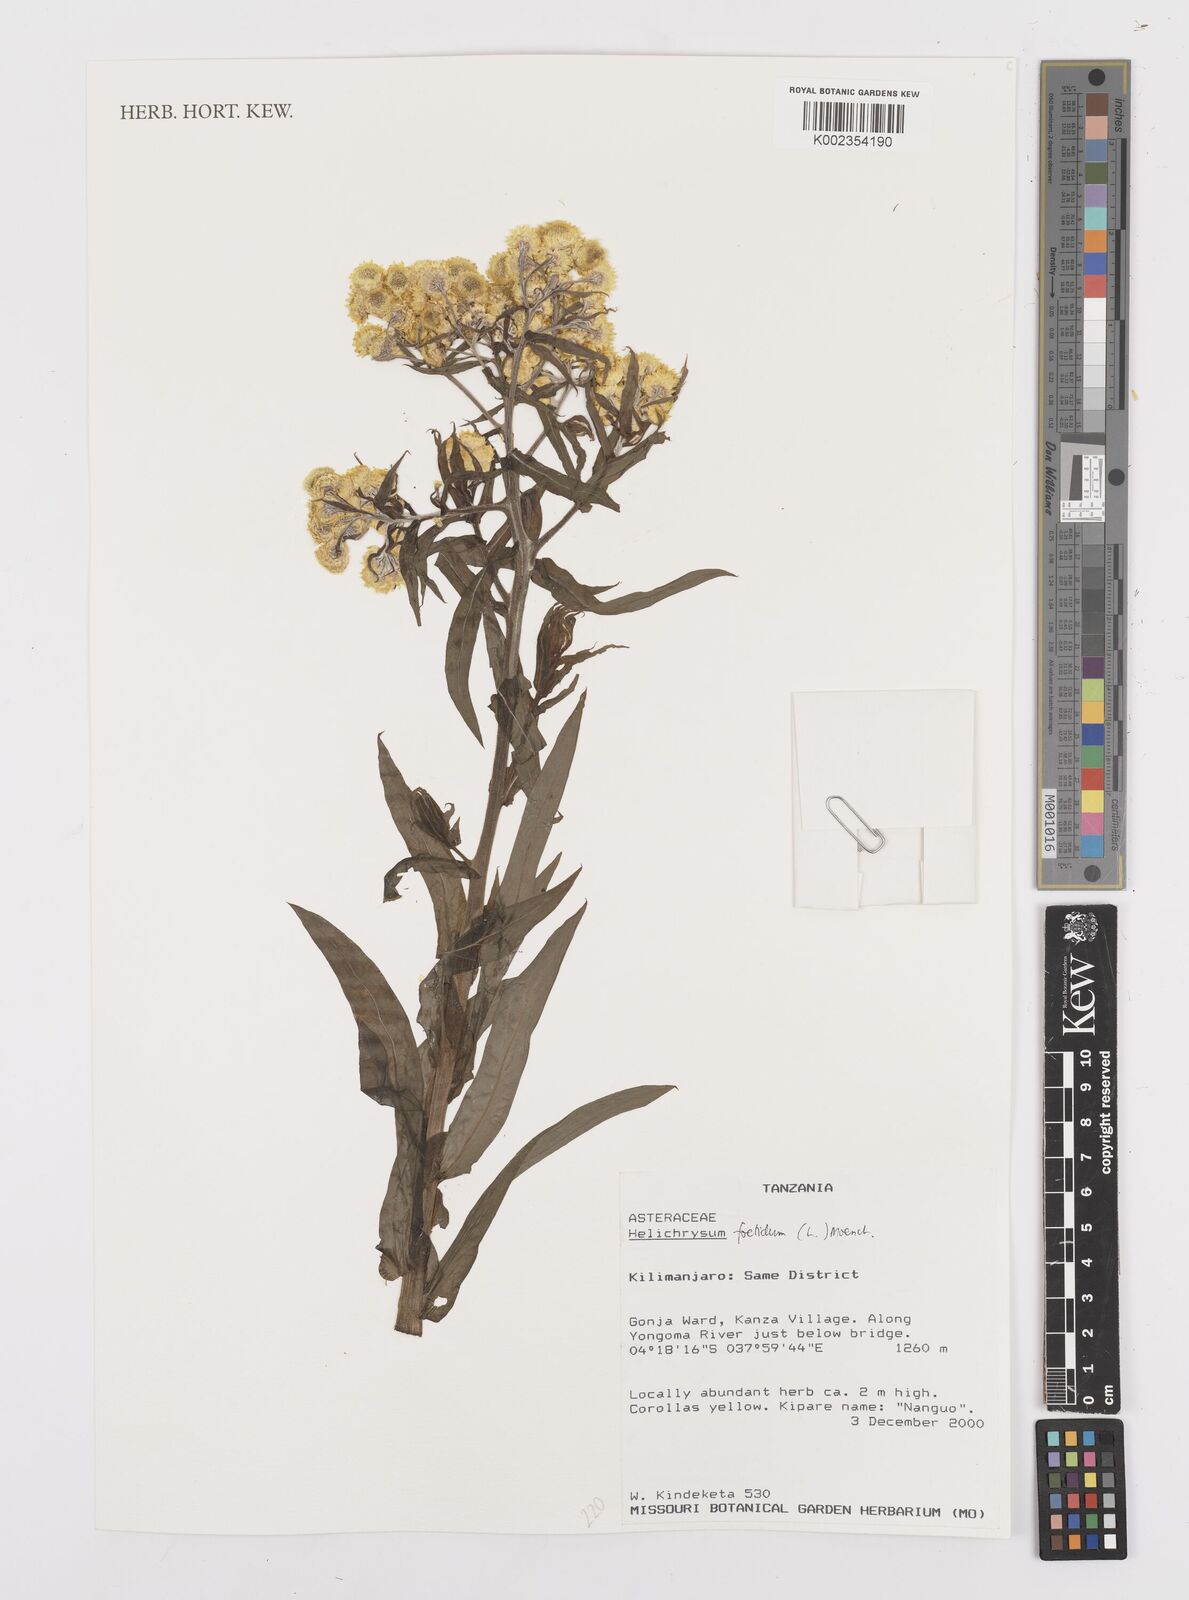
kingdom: Plantae
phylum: Tracheophyta
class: Magnoliopsida
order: Asterales
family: Asteraceae
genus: Helichrysum
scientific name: Helichrysum foetidum
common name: Stinking everlasting
